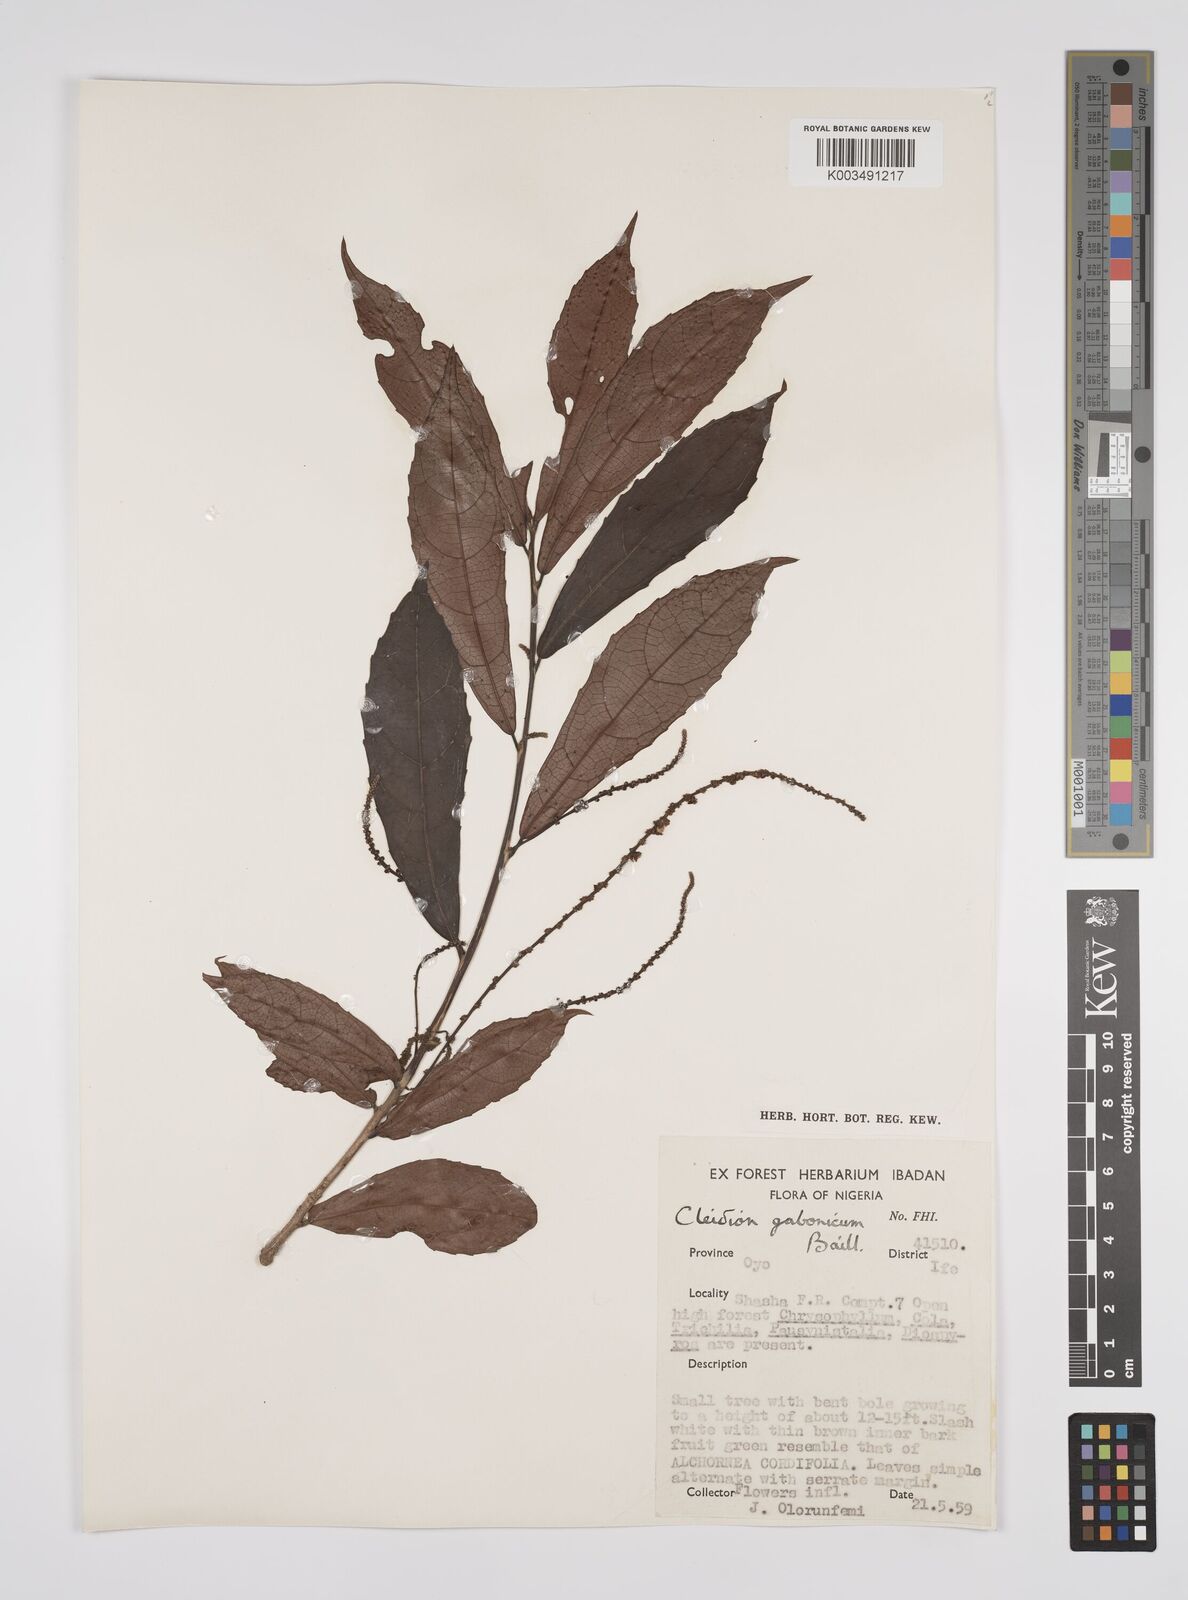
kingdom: Plantae
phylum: Tracheophyta
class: Magnoliopsida
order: Malpighiales
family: Euphorbiaceae
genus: Cleidion
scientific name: Cleidion gabonicum
